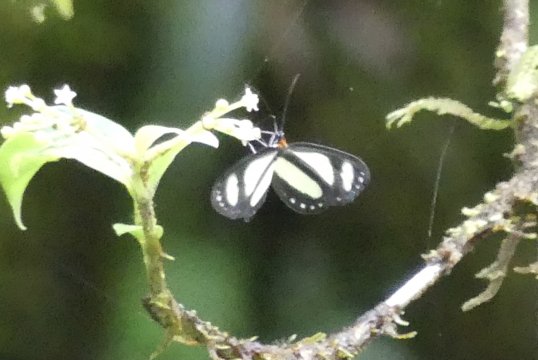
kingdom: Animalia
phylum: Arthropoda
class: Insecta
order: Lepidoptera
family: Nymphalidae
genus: Aeria
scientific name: Aeria eurimedia
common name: Banded Tigerwing
